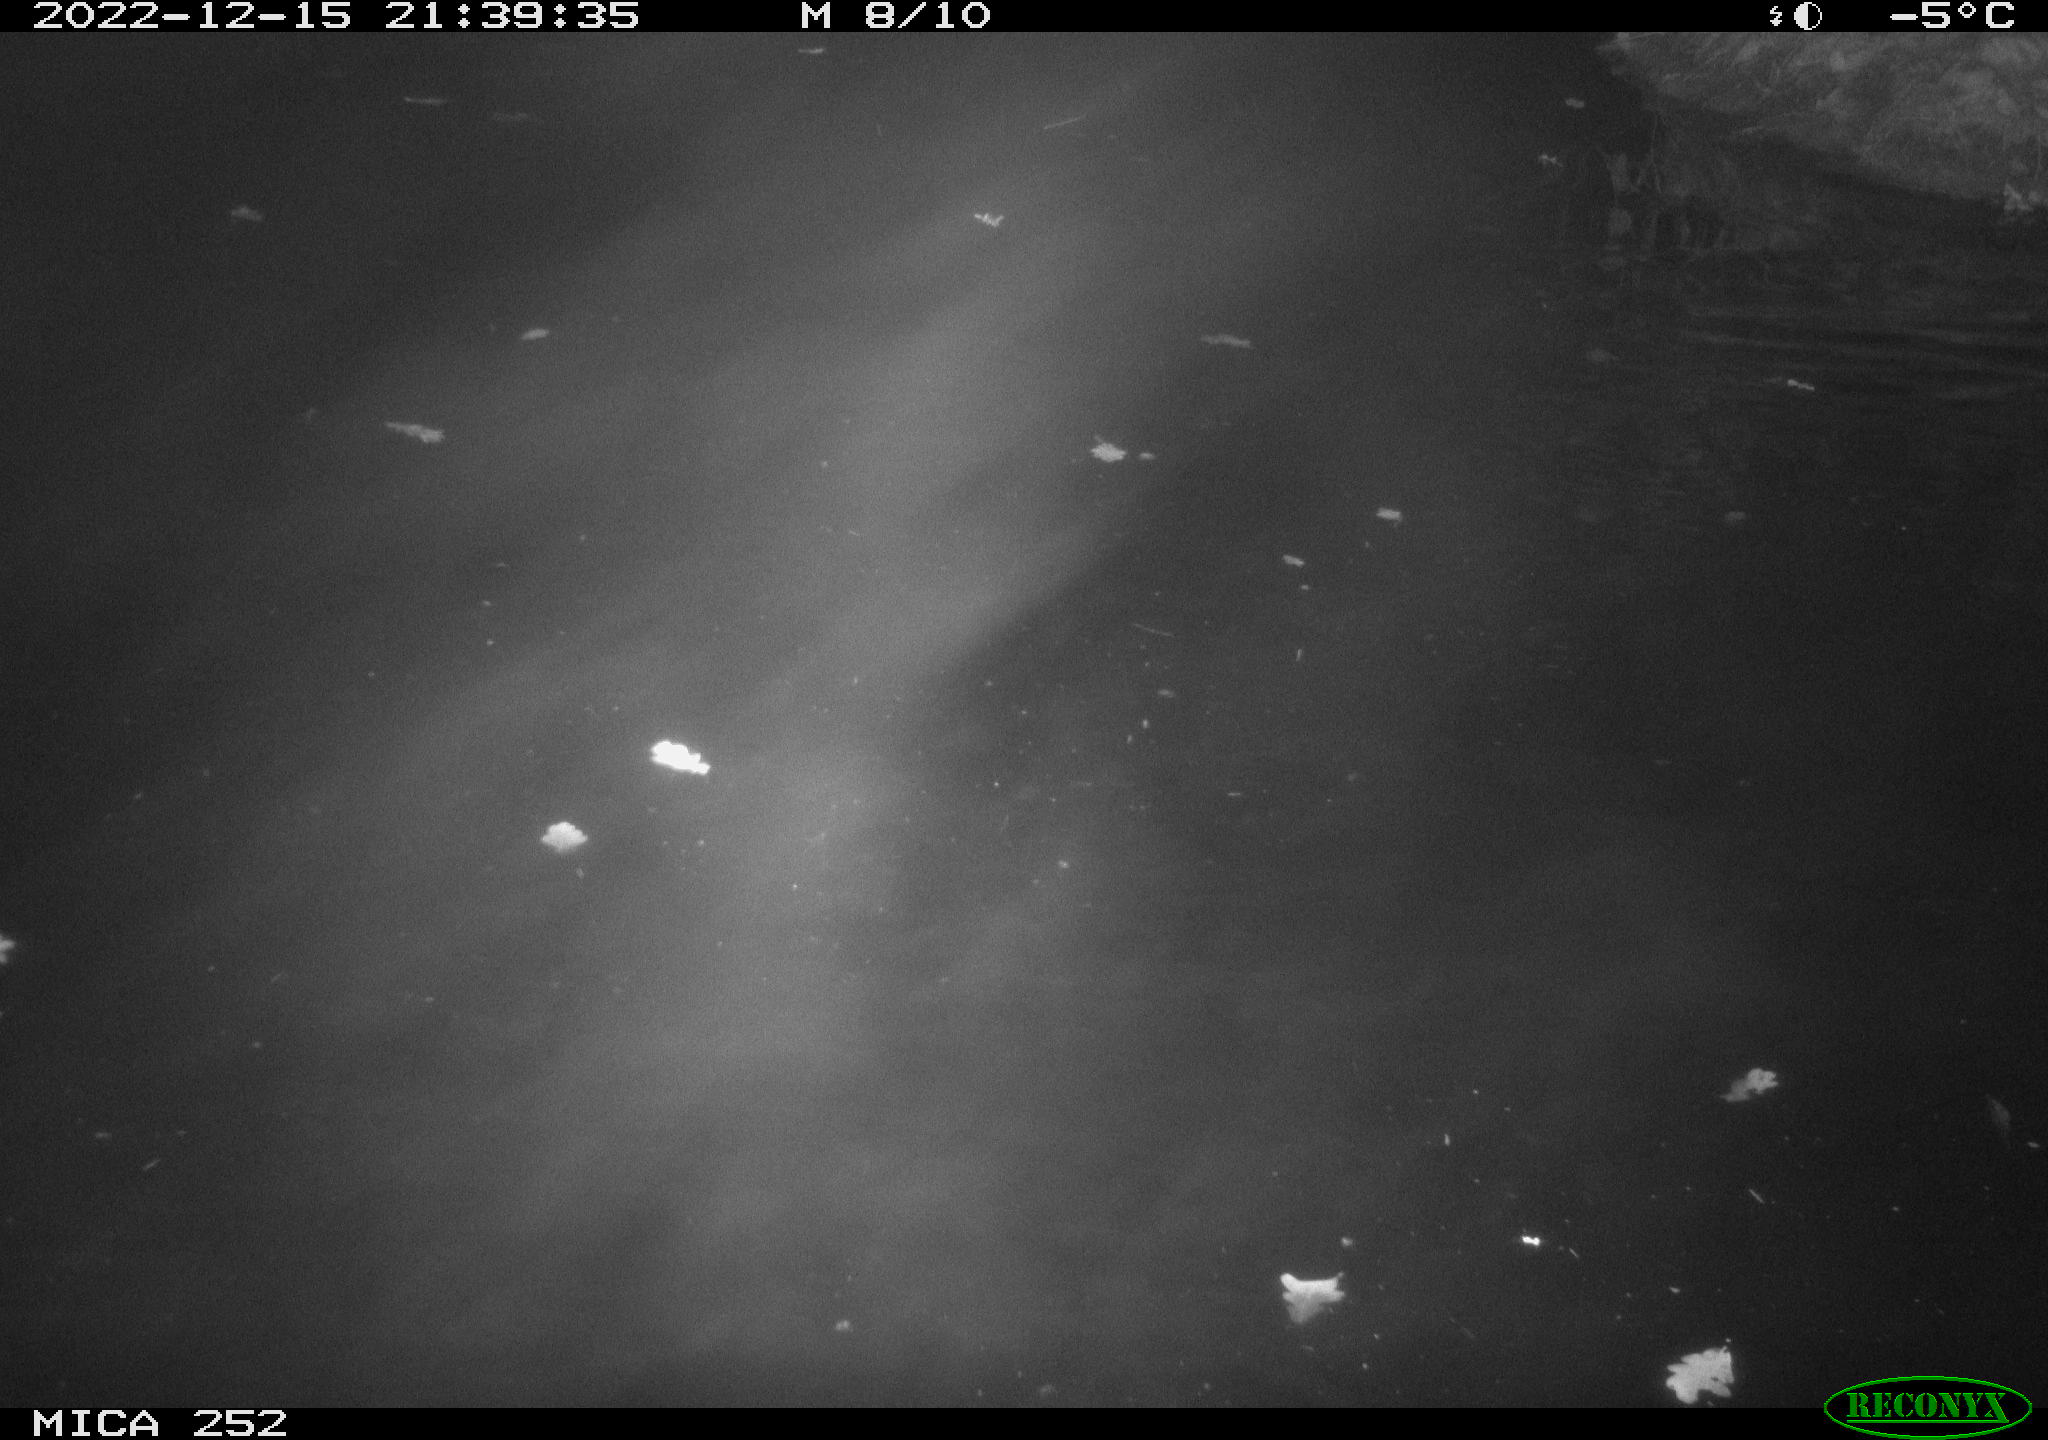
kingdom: Animalia
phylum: Chordata
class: Mammalia
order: Rodentia
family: Castoridae
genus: Castor
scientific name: Castor fiber
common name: Eurasian beaver
